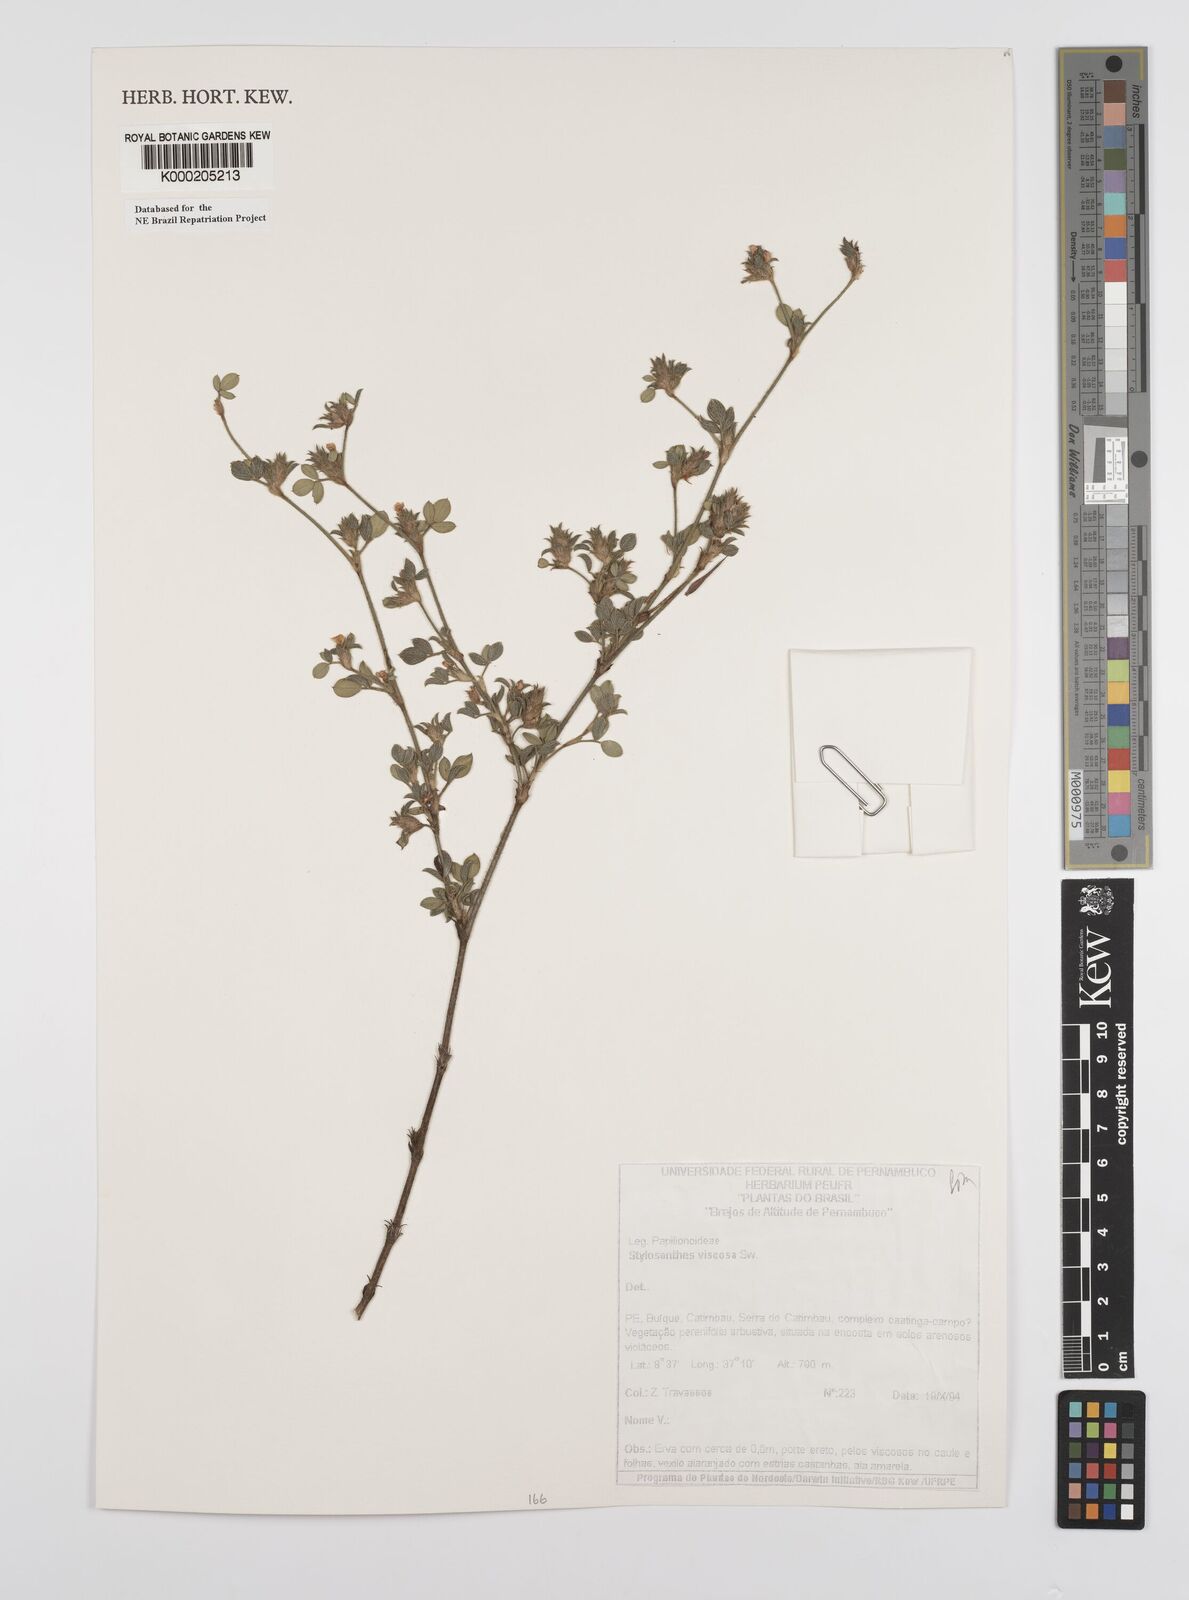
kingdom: Plantae
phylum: Tracheophyta
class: Magnoliopsida
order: Fabales
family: Fabaceae
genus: Stylosanthes
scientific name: Stylosanthes viscosa
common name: Viscid pencil-flower
